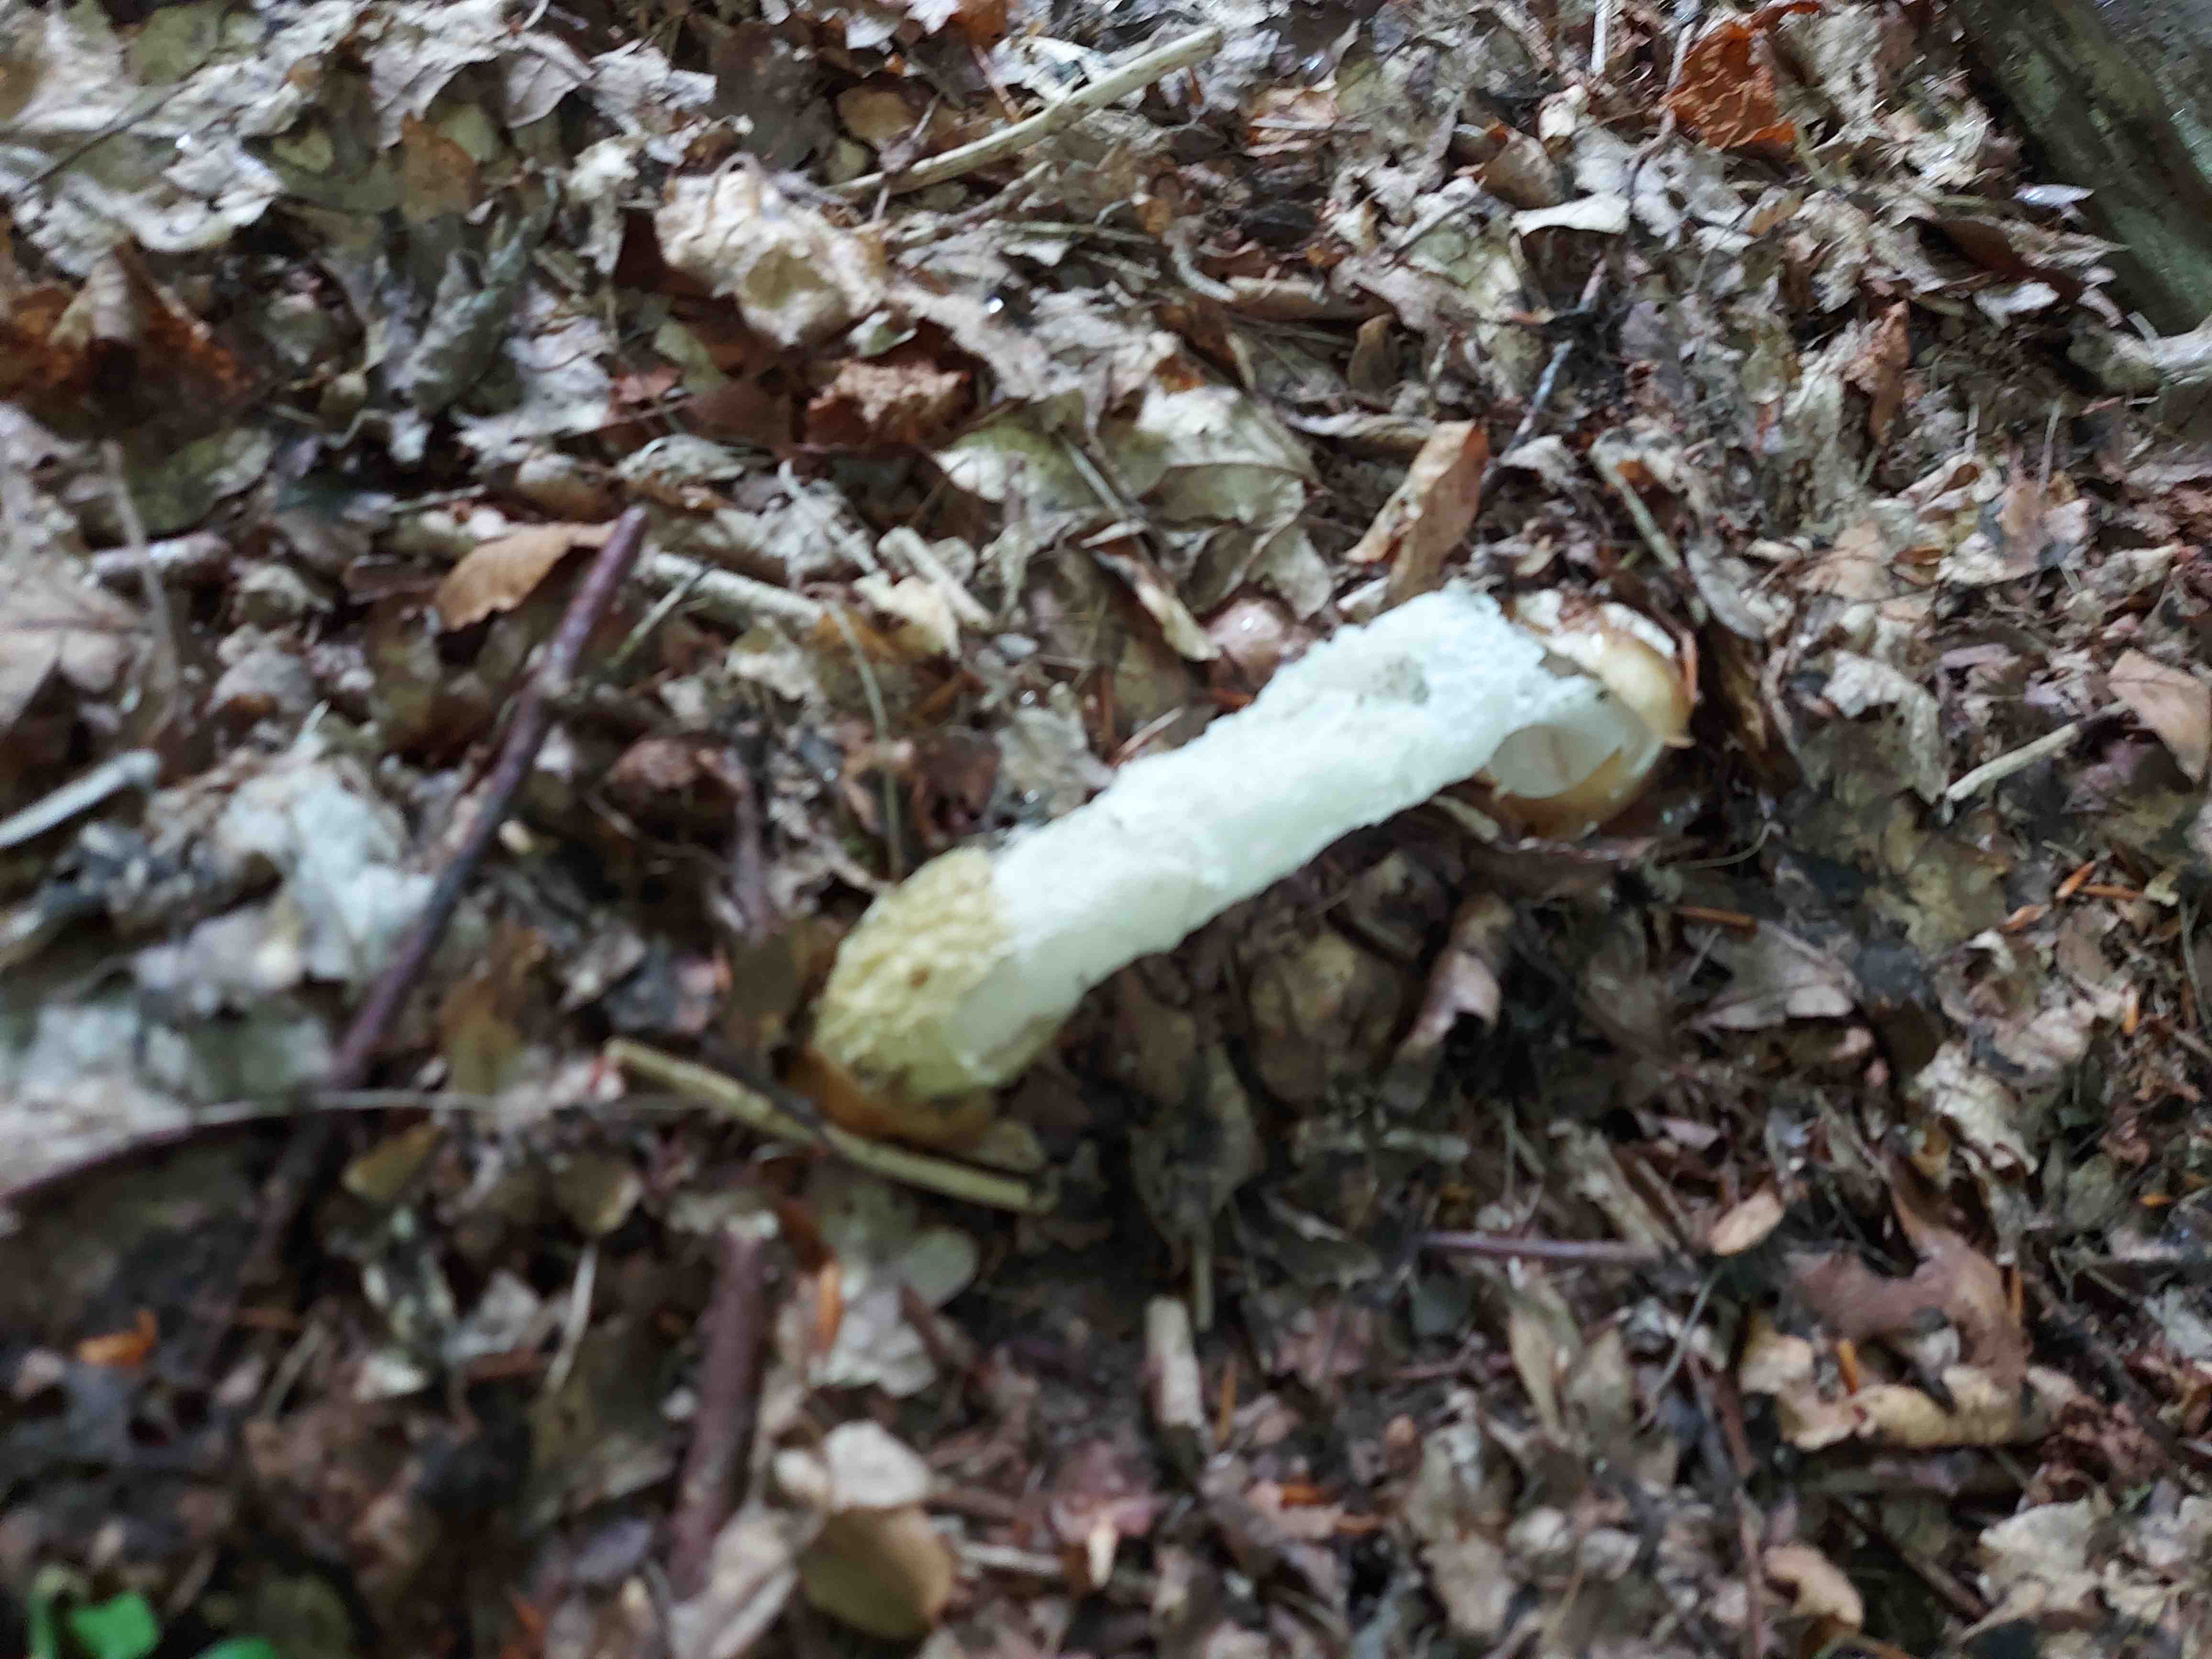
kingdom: Fungi
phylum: Basidiomycota
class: Agaricomycetes
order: Phallales
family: Phallaceae
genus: Phallus
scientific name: Phallus impudicus
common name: almindelig stinksvamp
